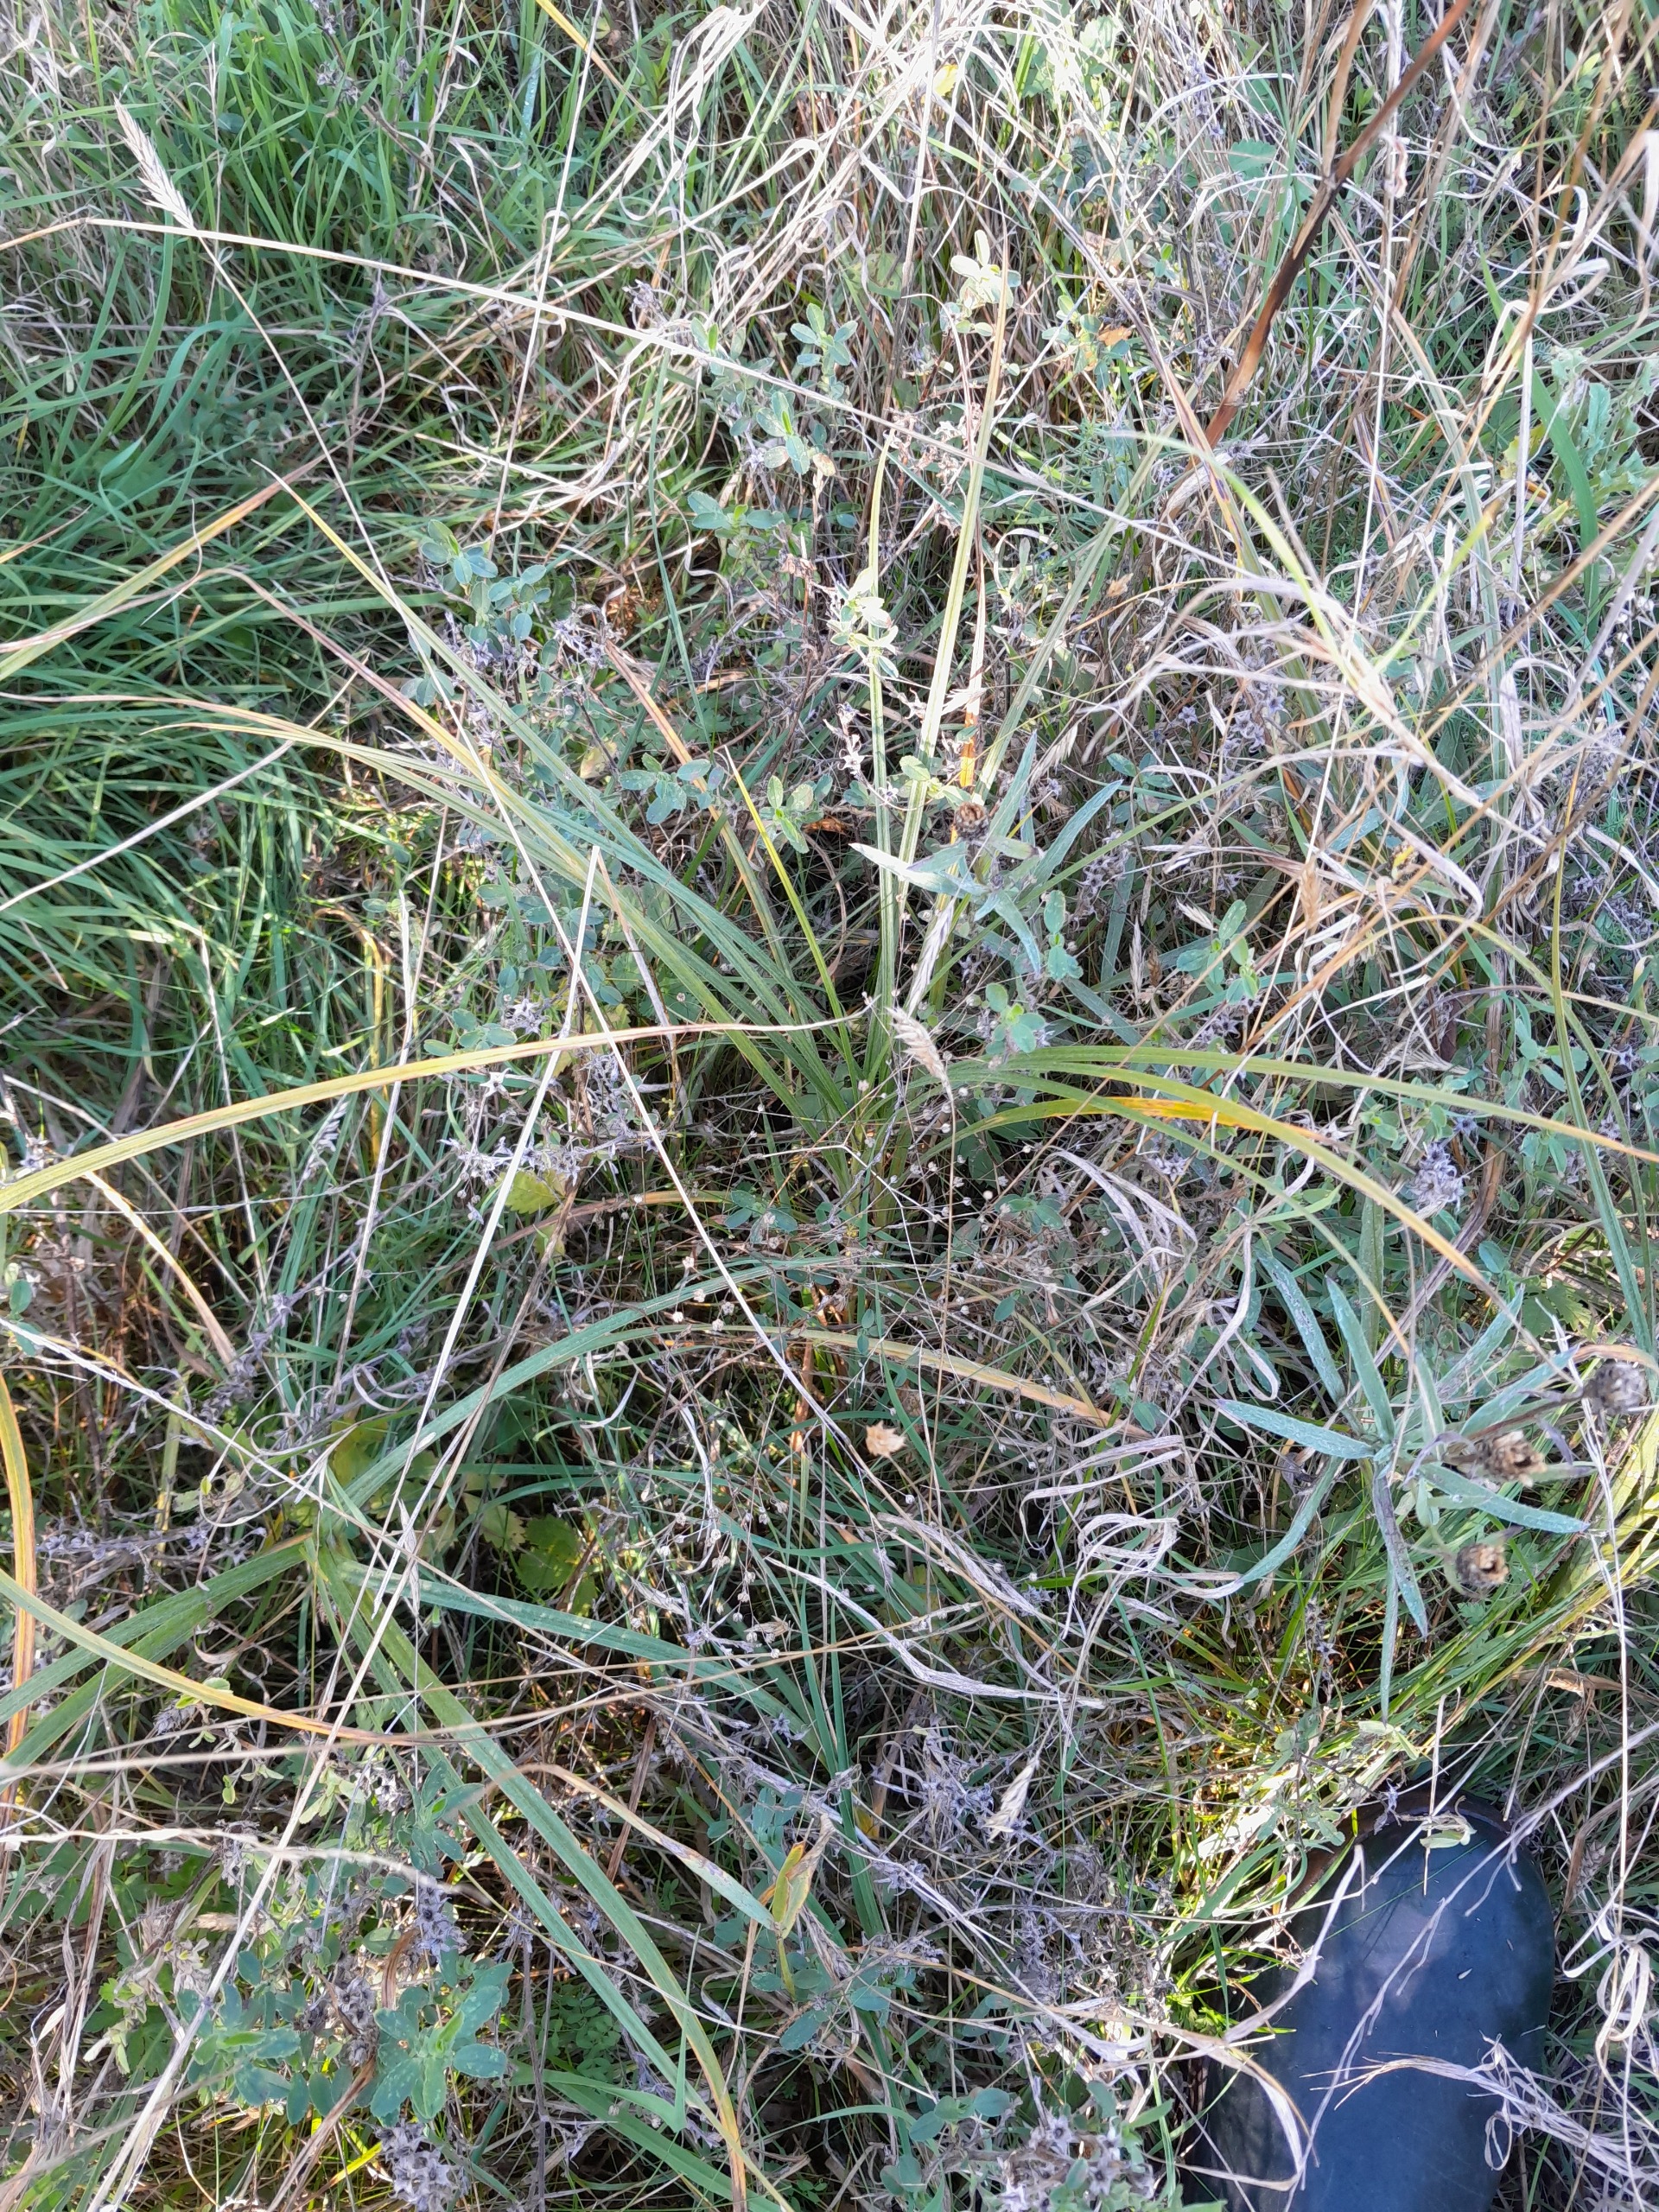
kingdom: Plantae
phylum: Tracheophyta
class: Magnoliopsida
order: Malpighiales
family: Linaceae
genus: Linum
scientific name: Linum catharticum
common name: Vild hør
